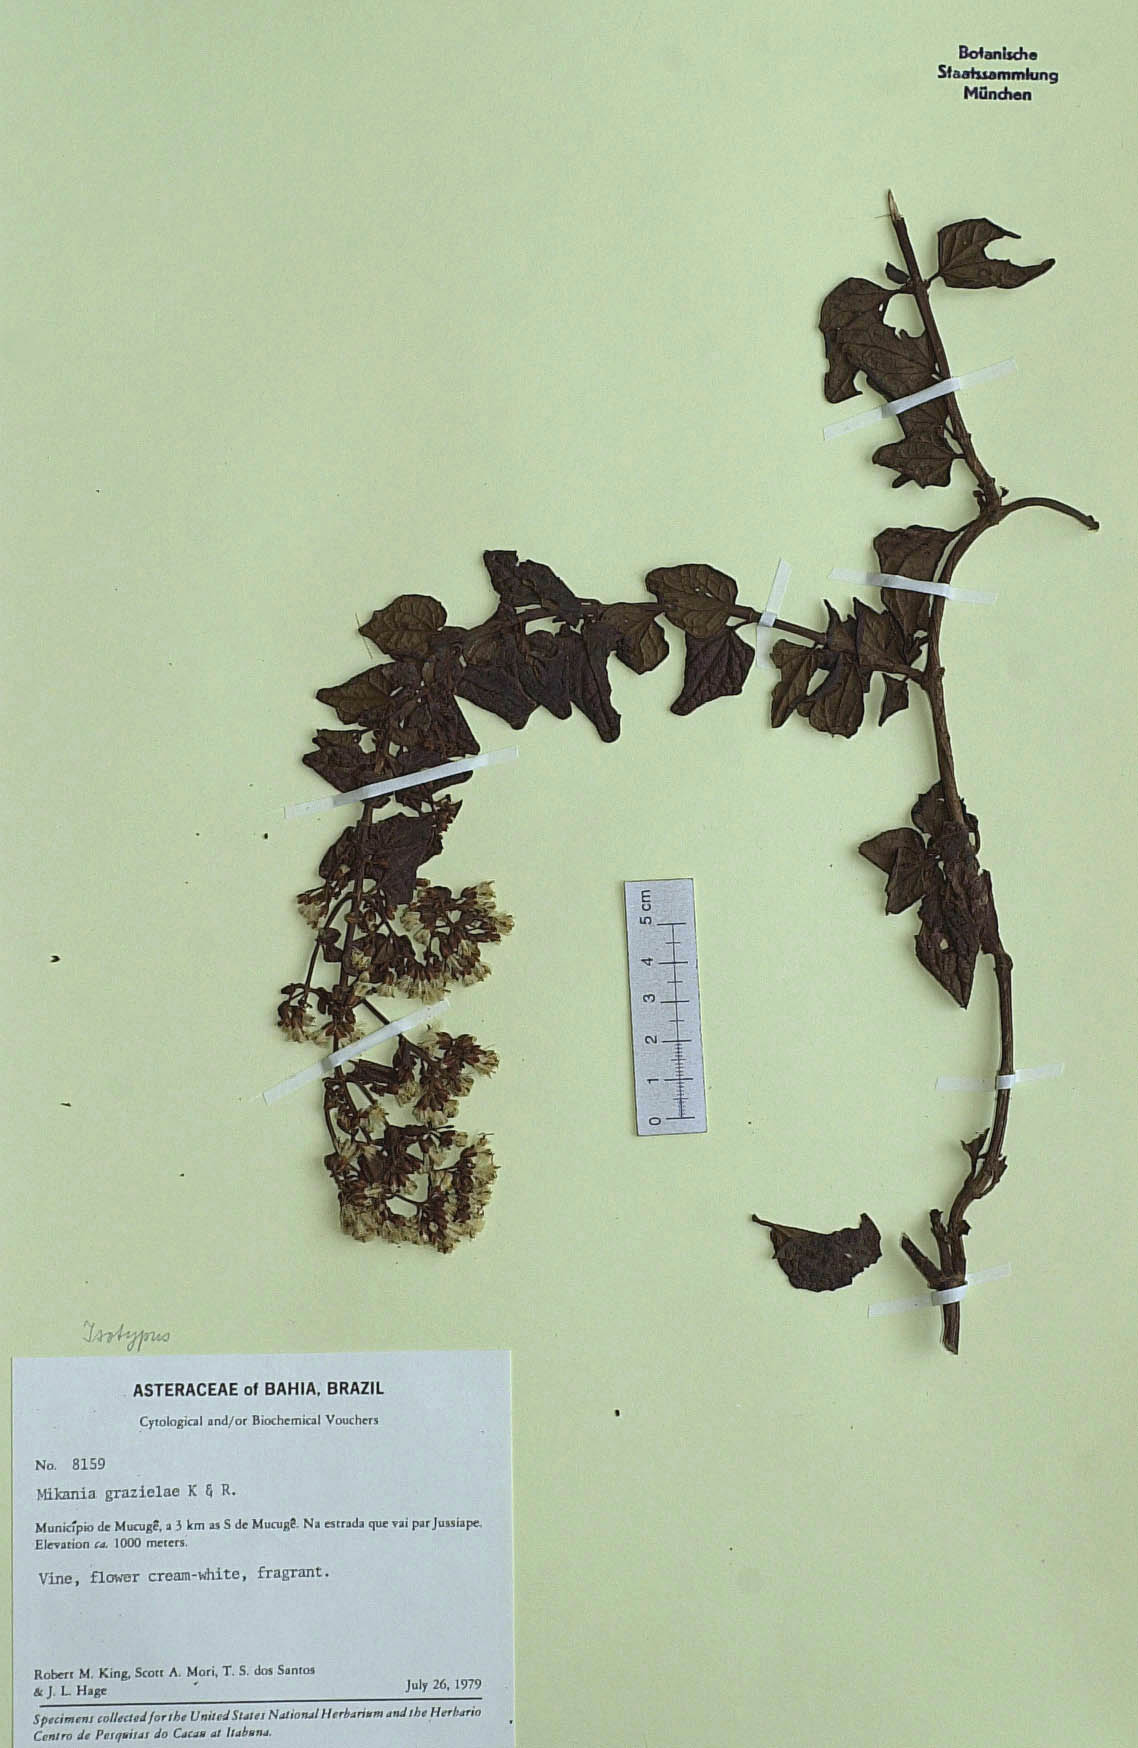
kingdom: Plantae
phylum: Tracheophyta
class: Magnoliopsida
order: Asterales
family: Asteraceae
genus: Mikania
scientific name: Mikania grazielae
